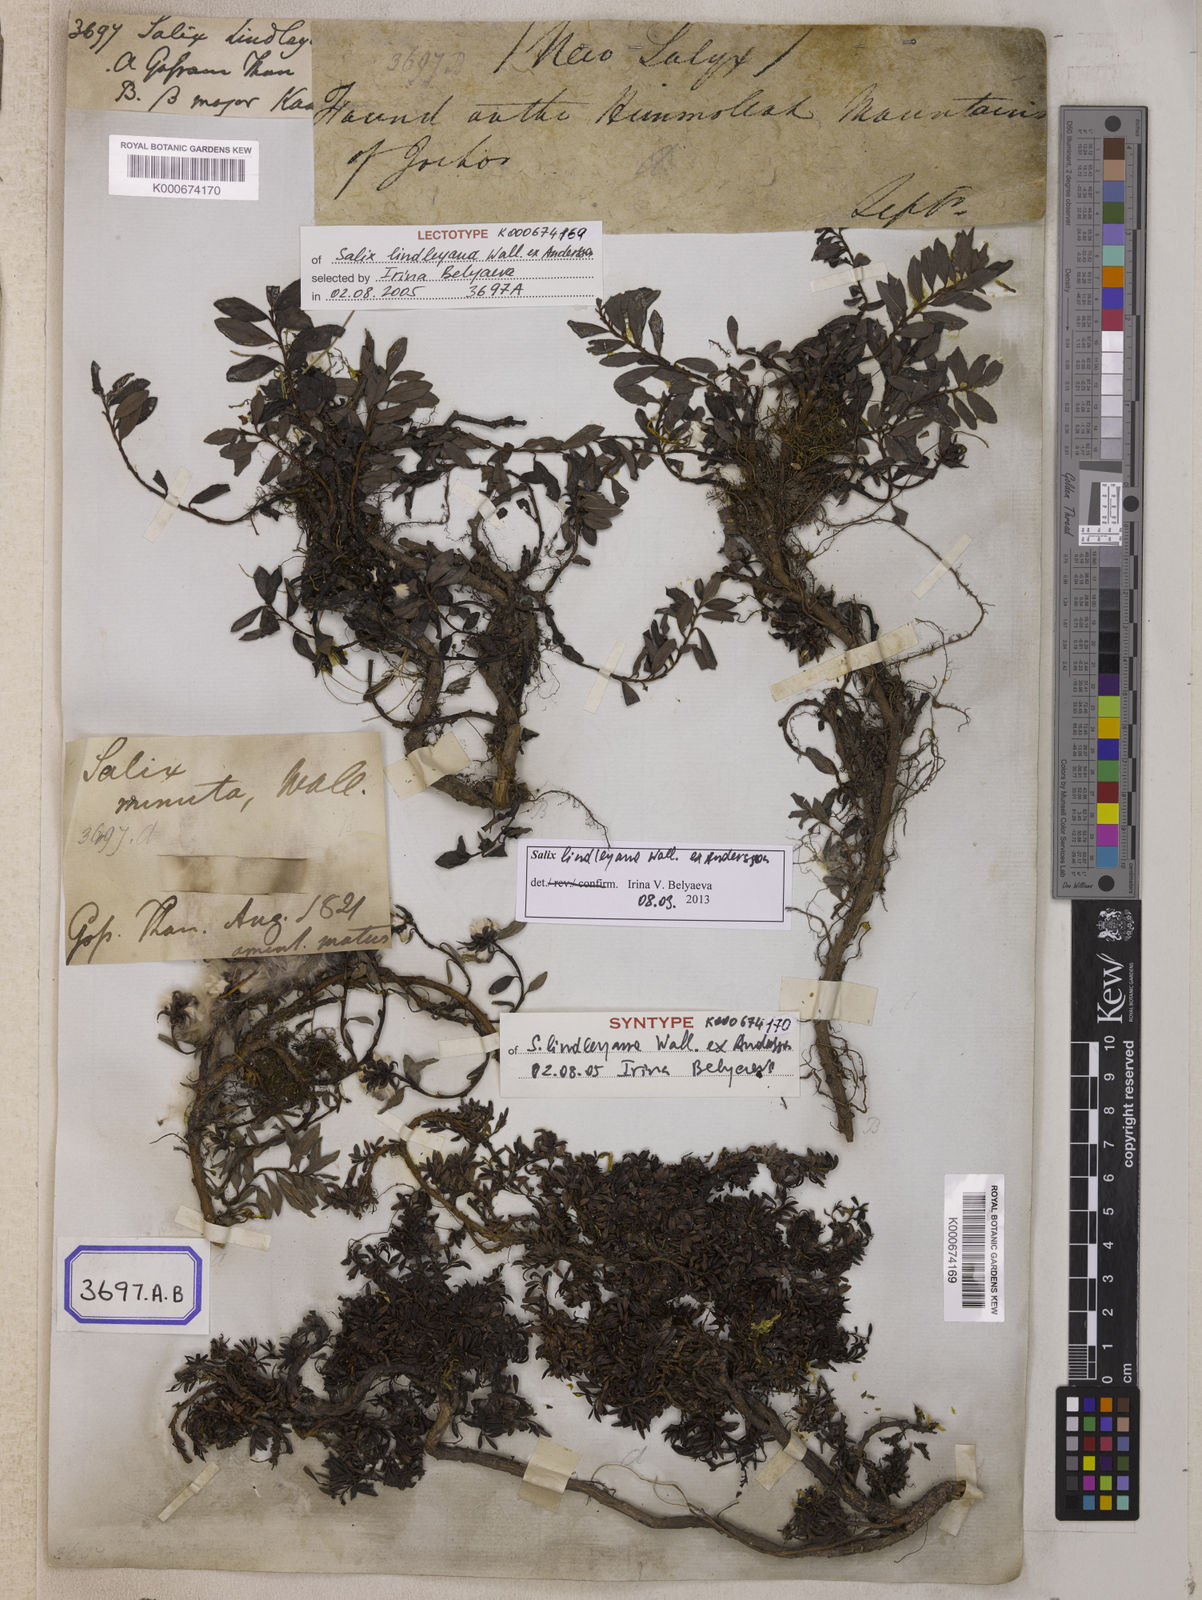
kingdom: Plantae
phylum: Tracheophyta
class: Magnoliopsida
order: Malpighiales
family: Salicaceae
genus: Salix
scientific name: Salix
